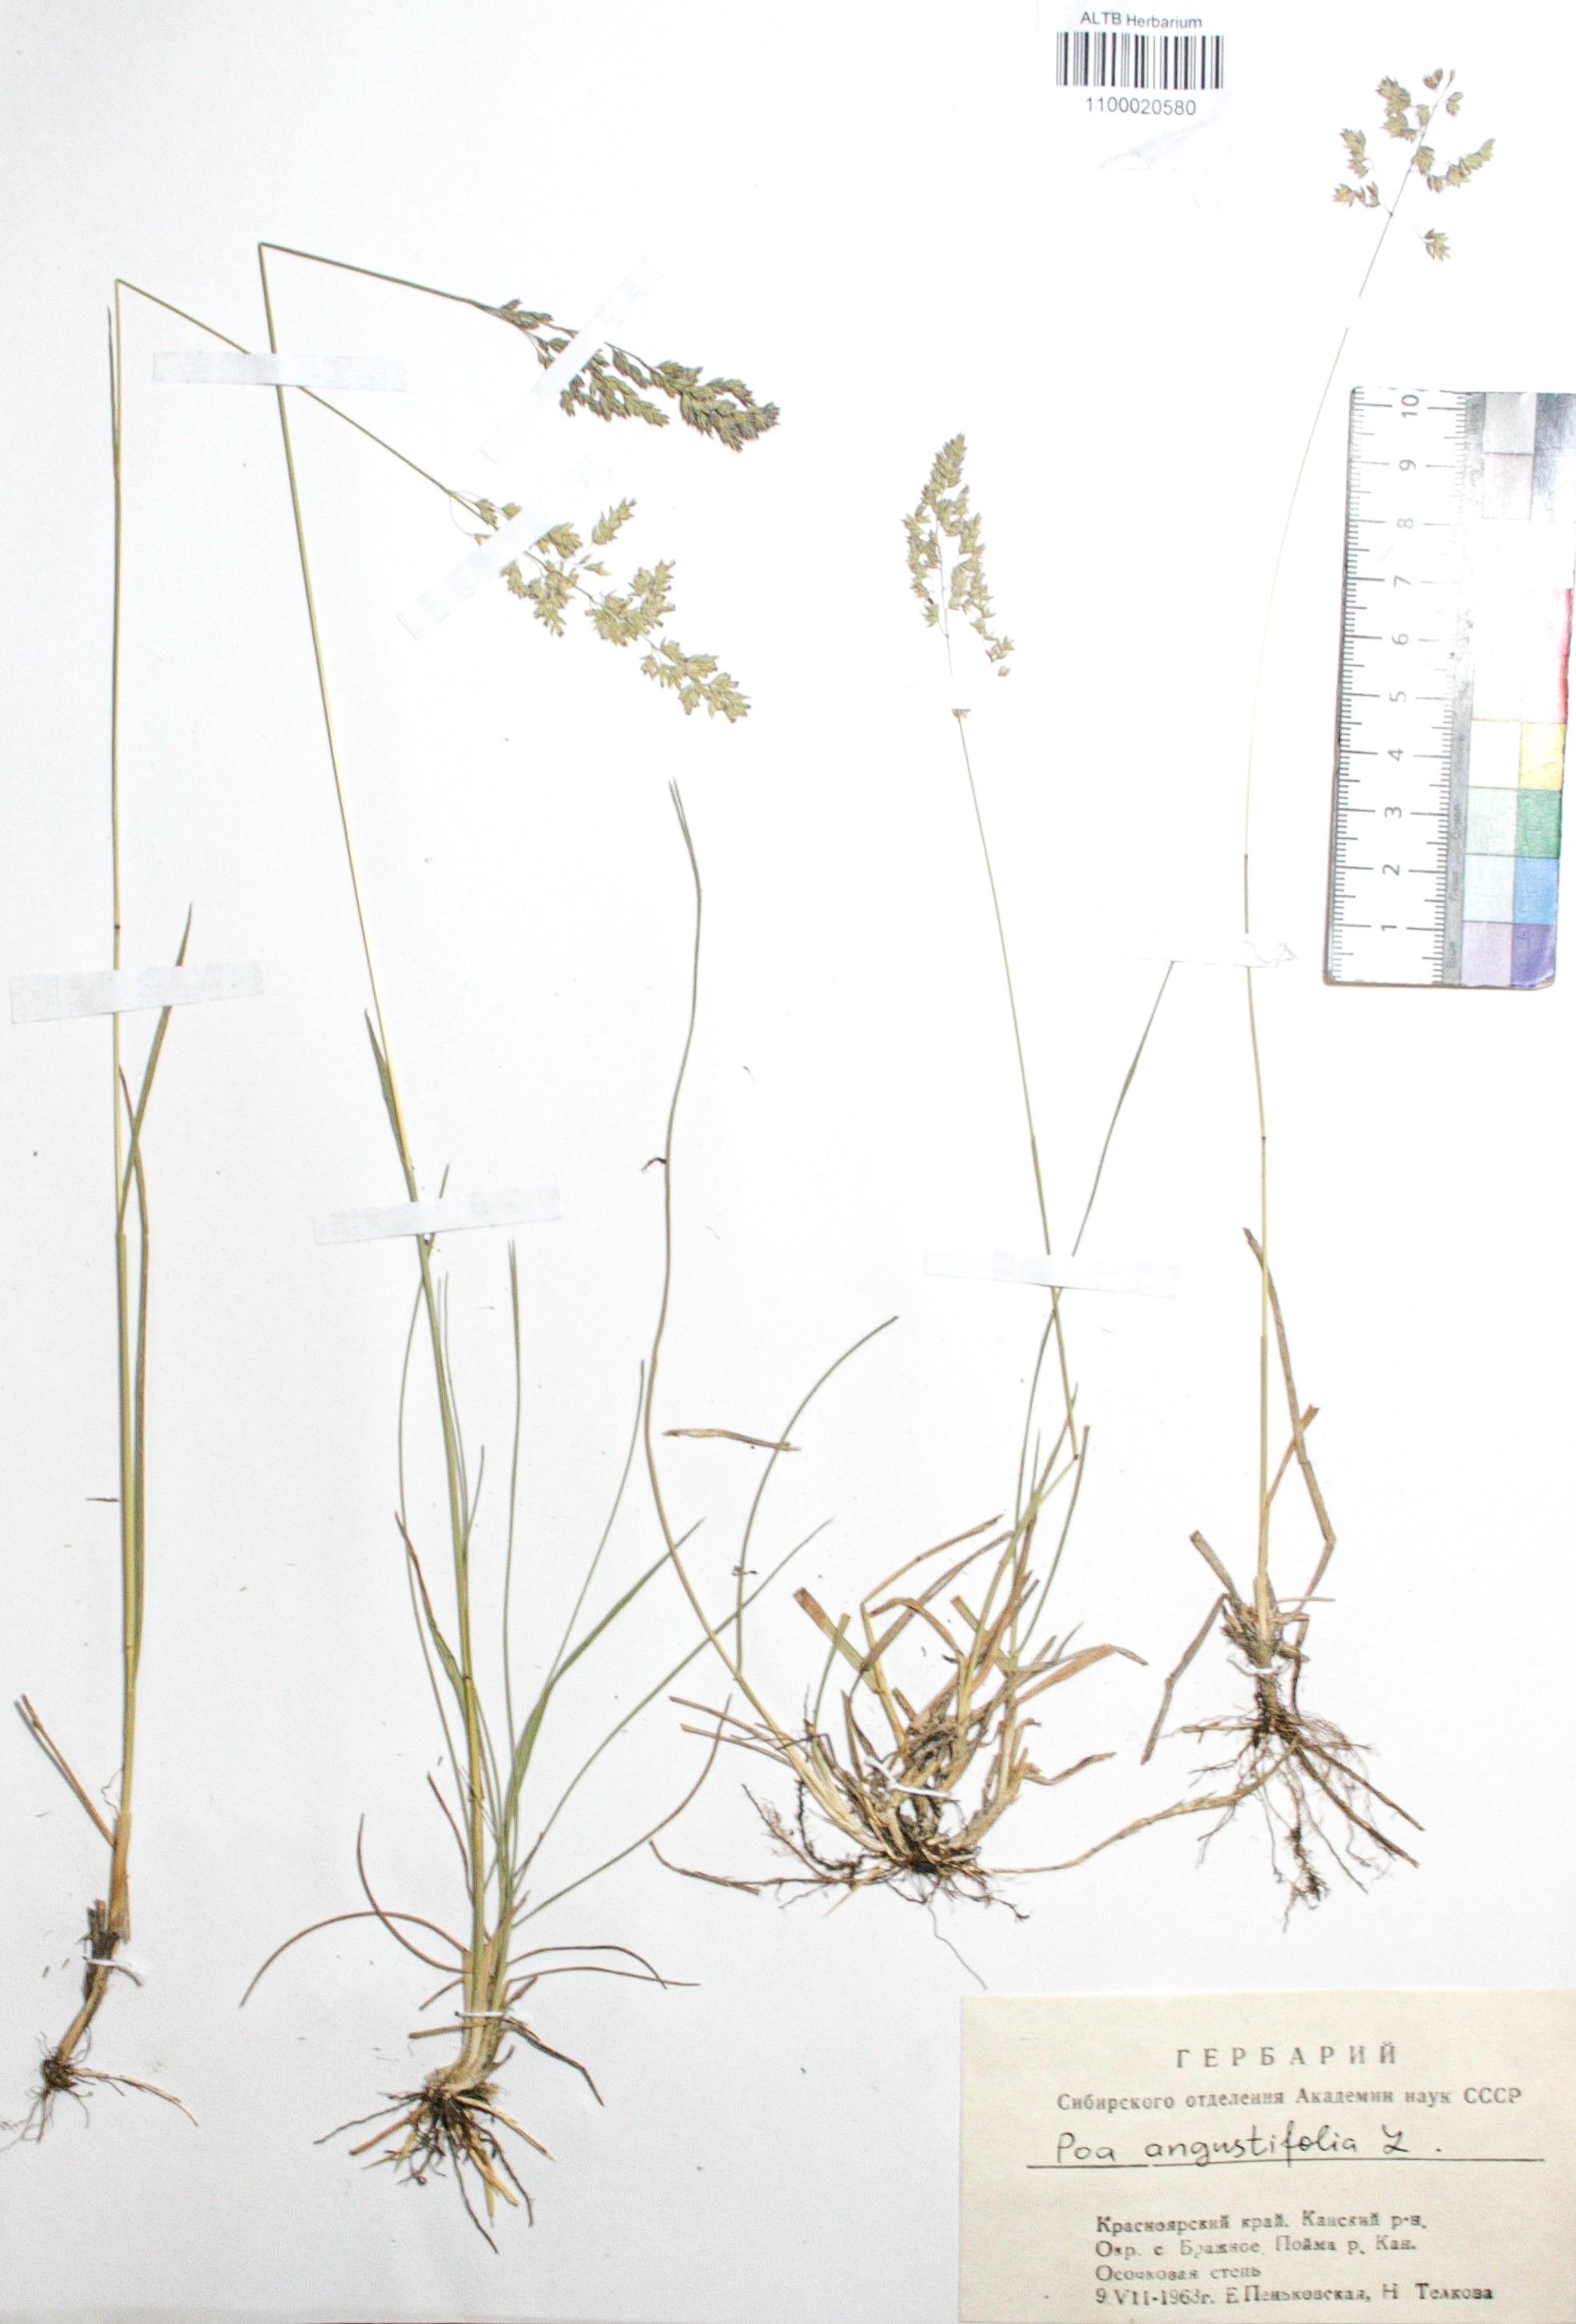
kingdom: Plantae
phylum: Tracheophyta
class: Liliopsida
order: Poales
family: Poaceae
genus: Poa
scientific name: Poa angustifolia
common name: Narrow-leaved meadow-grass
